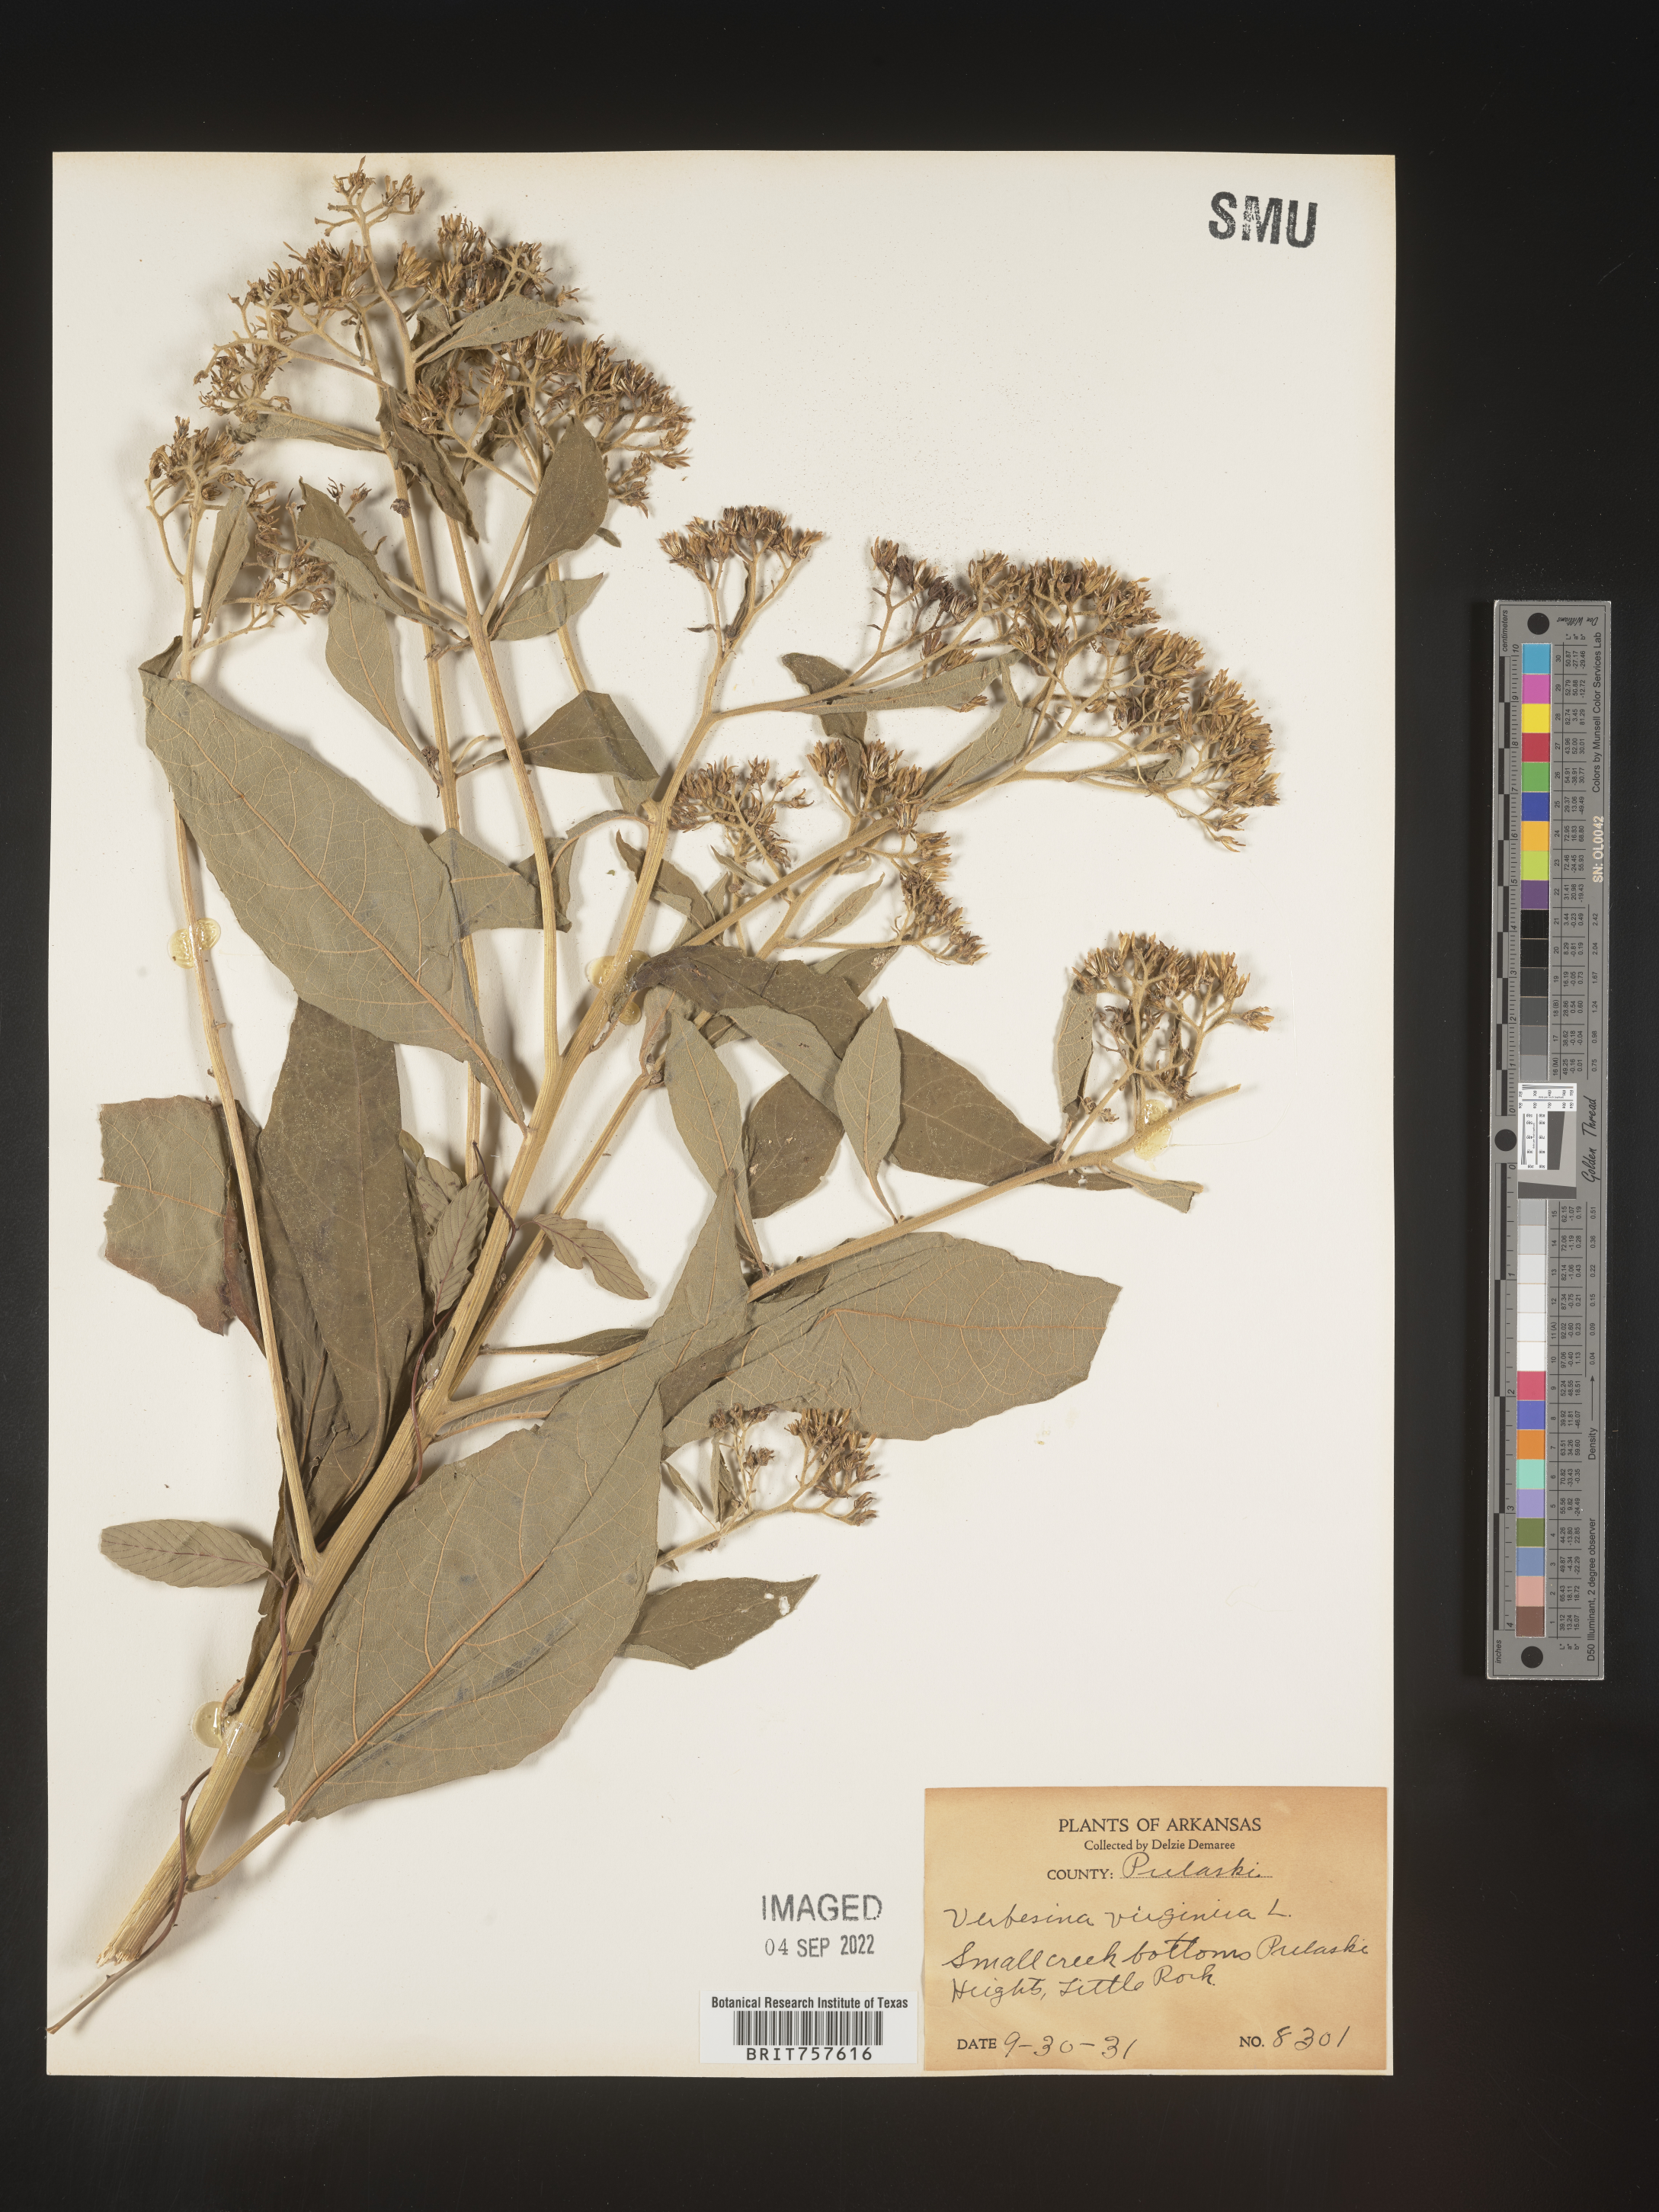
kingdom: Plantae
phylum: Tracheophyta
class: Magnoliopsida
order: Asterales
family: Asteraceae
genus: Verbesina
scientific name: Verbesina virginica
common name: Frostweed
